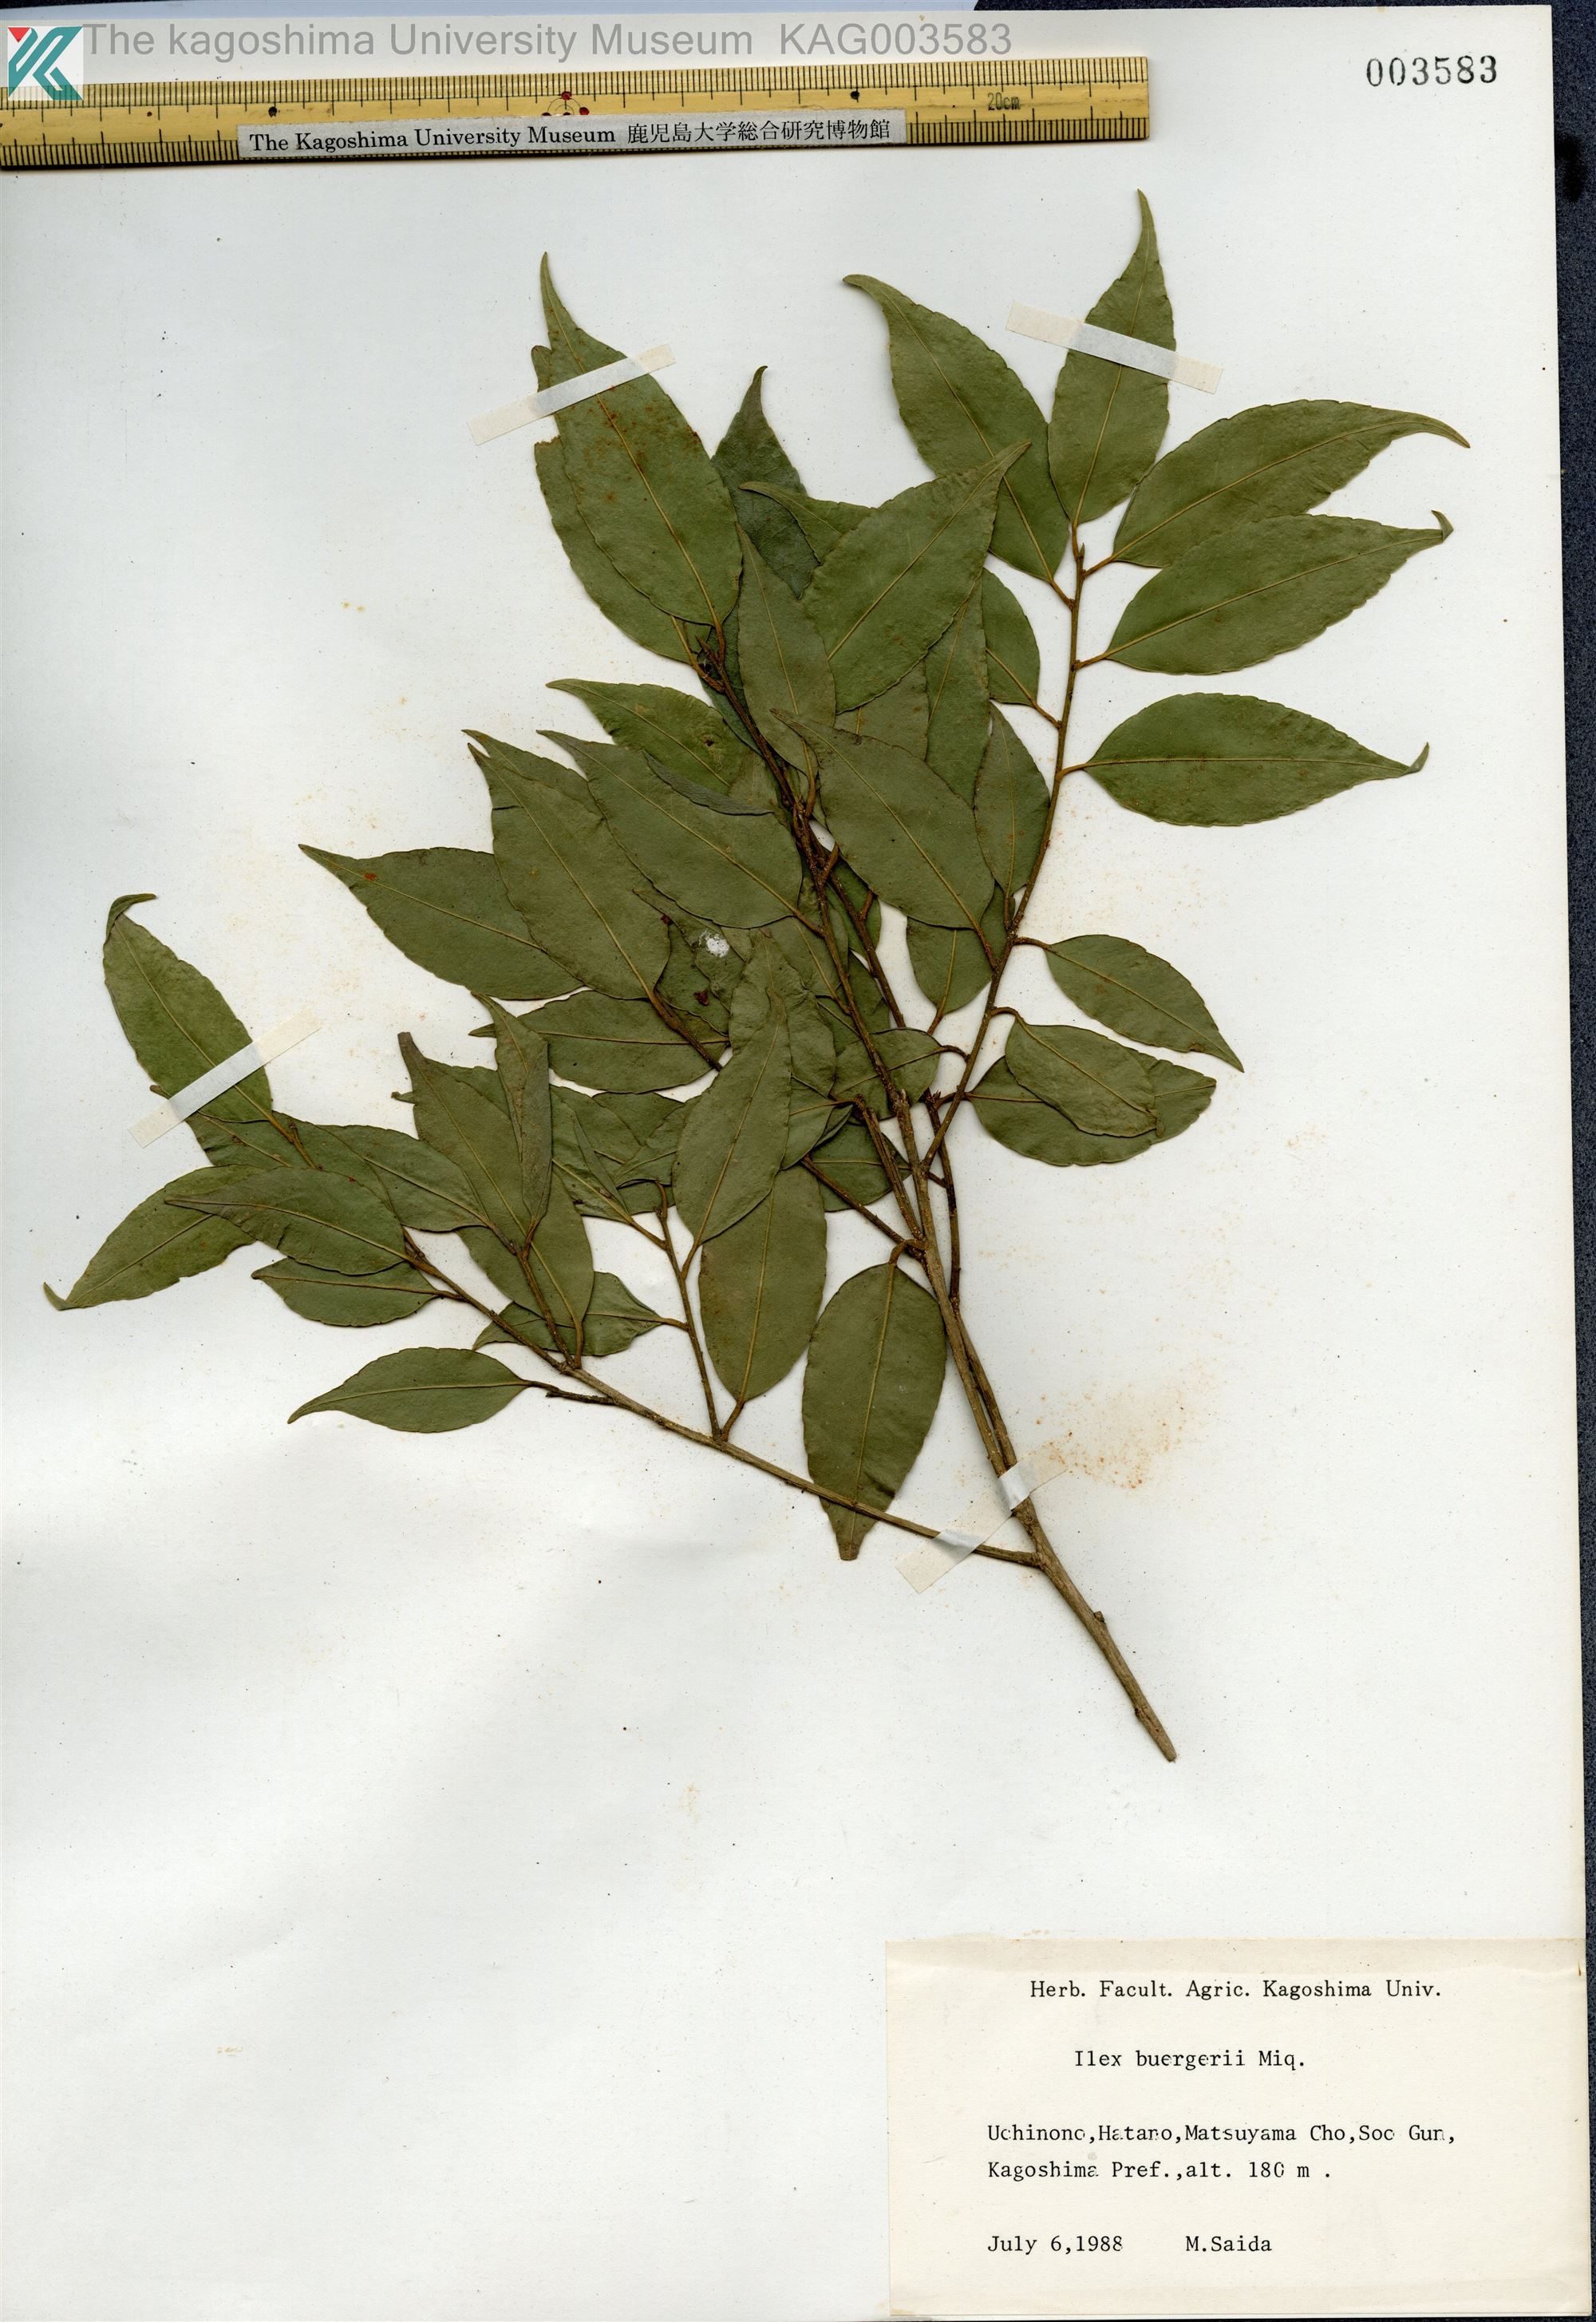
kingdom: Plantae
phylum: Tracheophyta
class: Magnoliopsida
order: Aquifoliales
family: Aquifoliaceae
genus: Ilex
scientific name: Ilex buergeri
